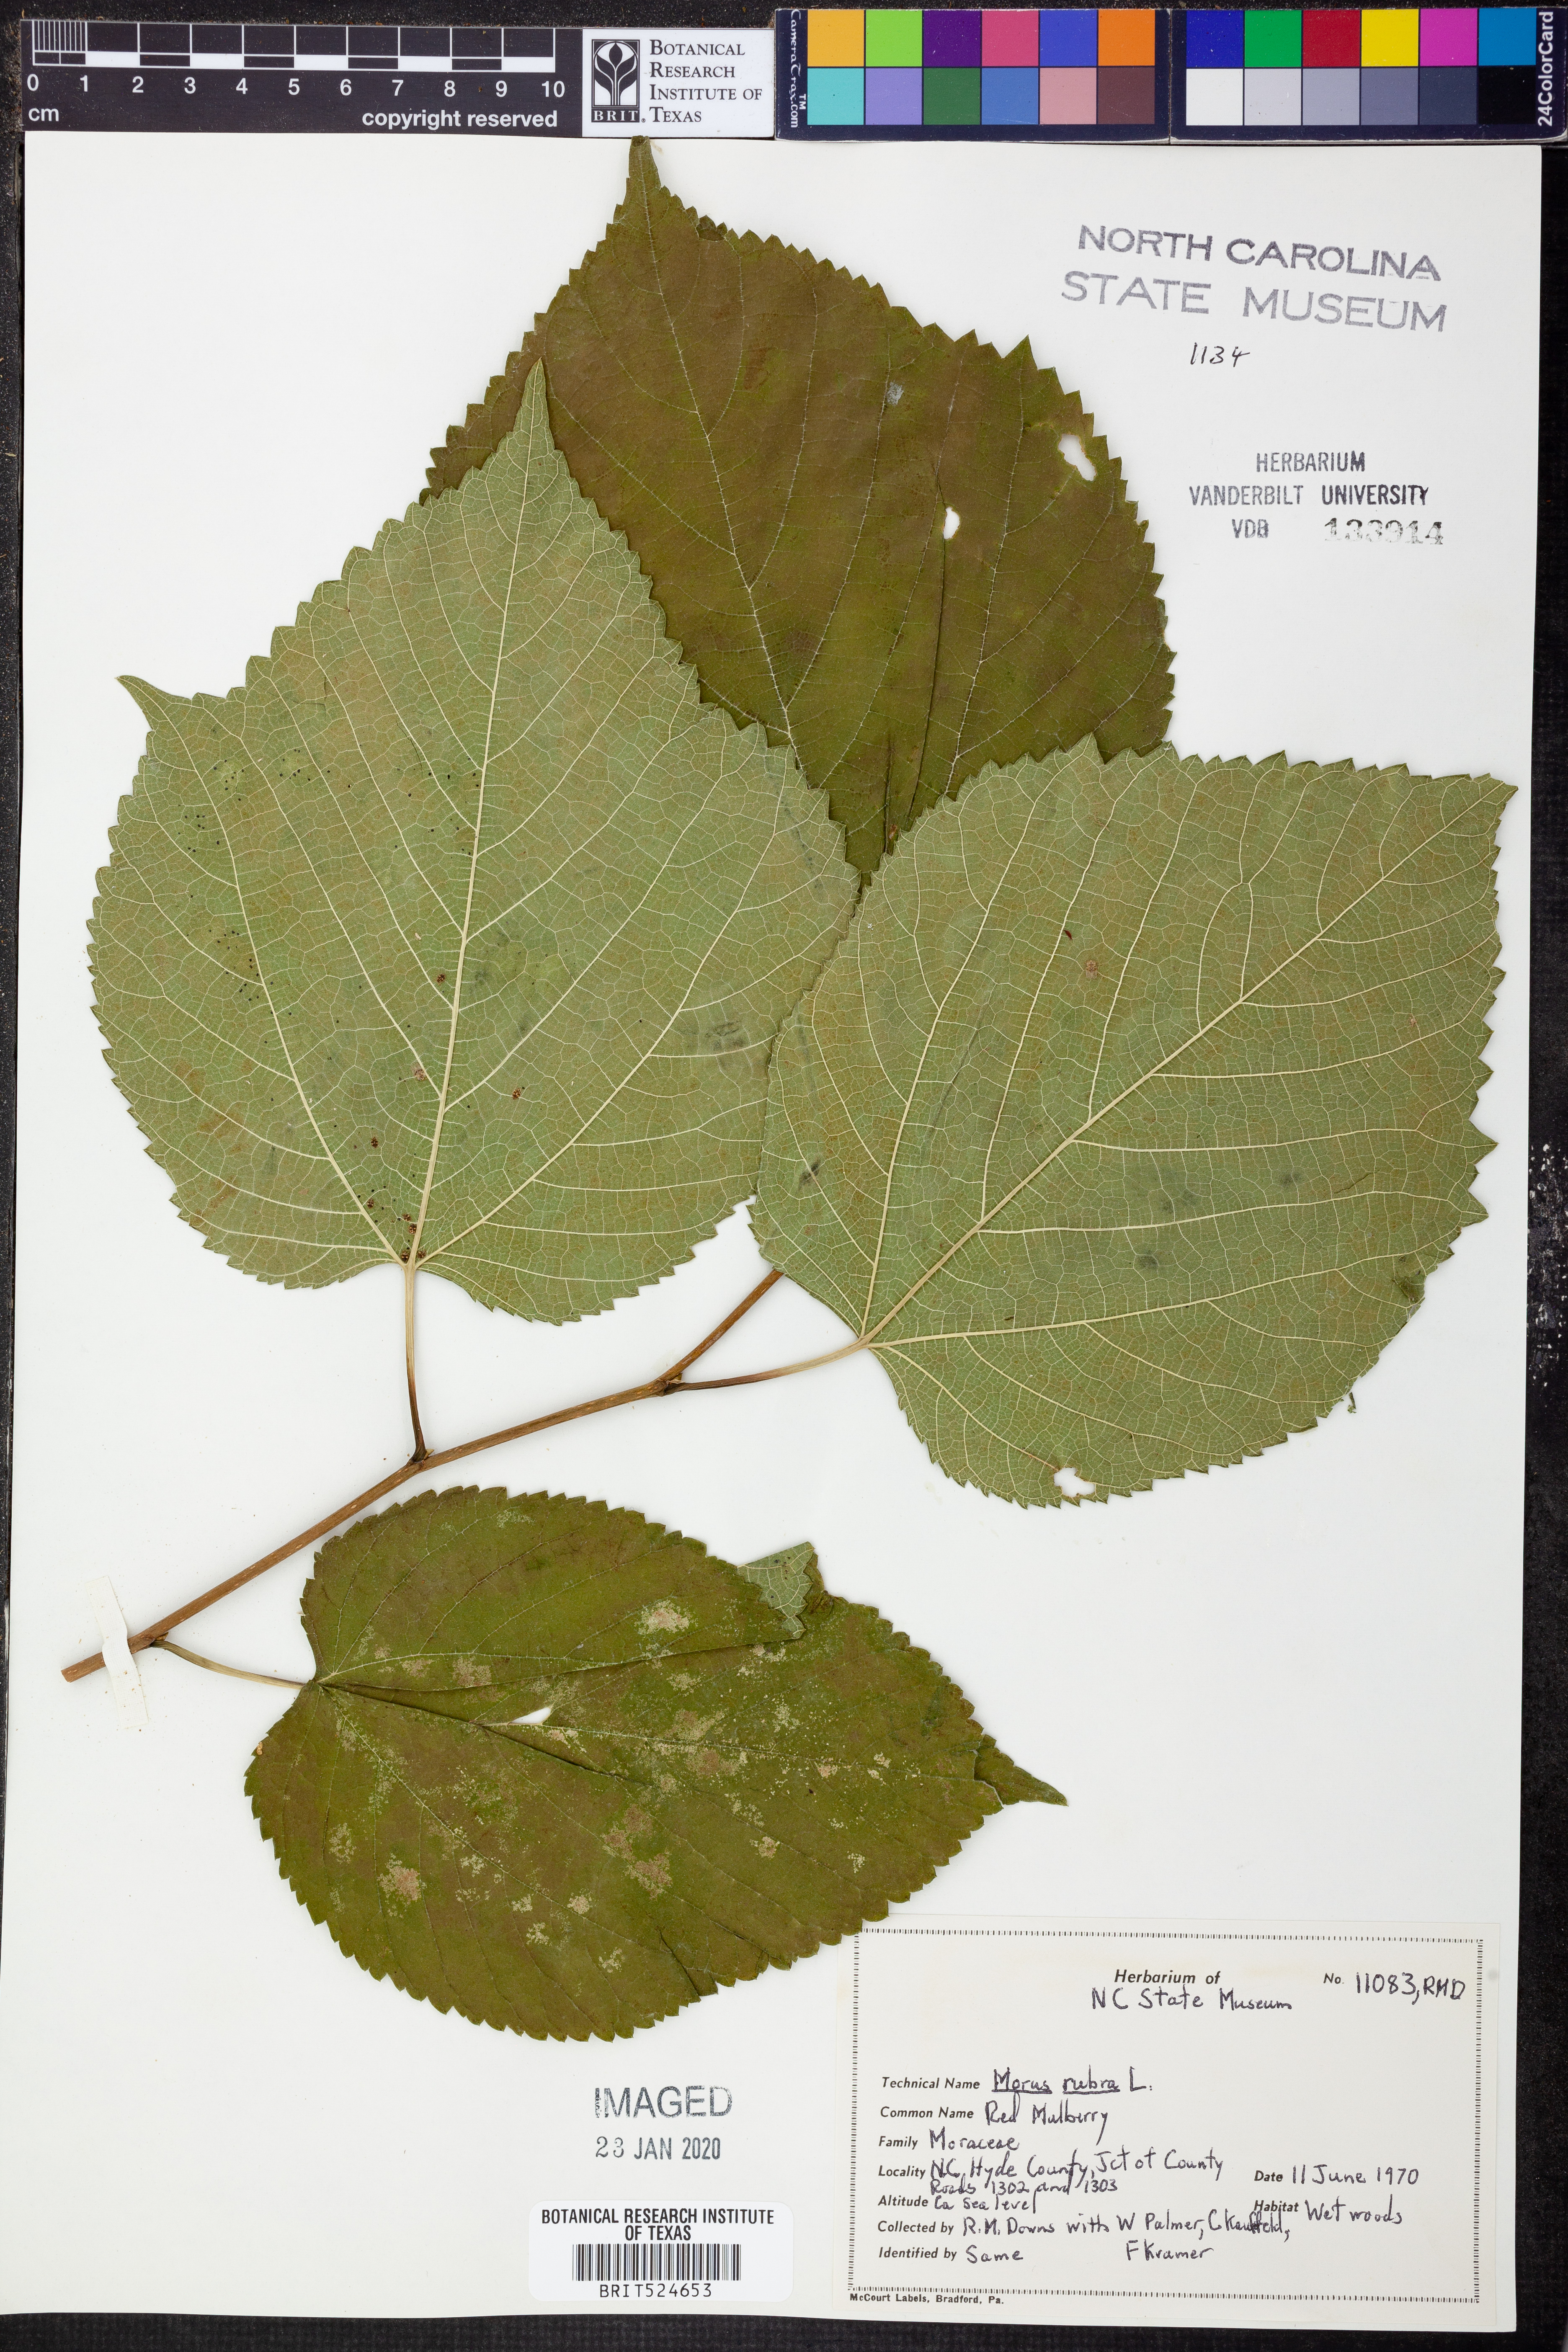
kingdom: Plantae
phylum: Tracheophyta
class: Magnoliopsida
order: Rosales
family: Moraceae
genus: Morus
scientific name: Morus rubra
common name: Red mulberry
